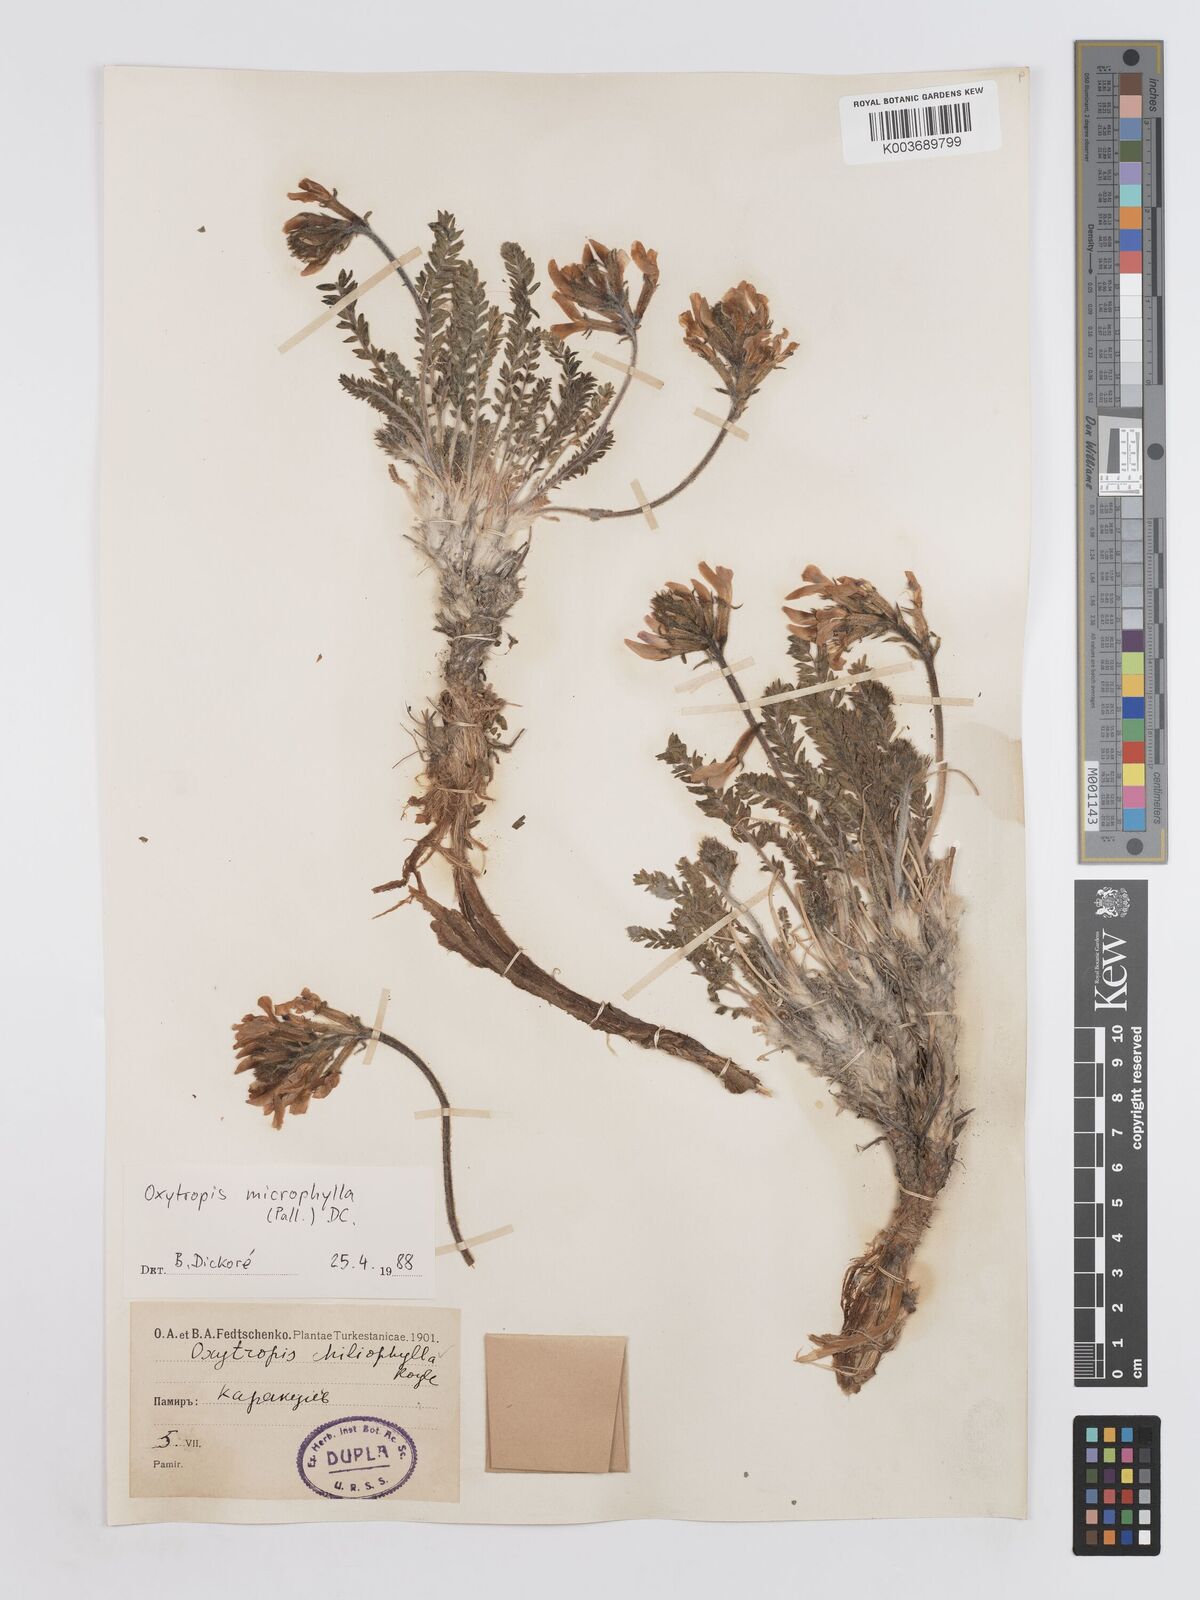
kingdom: Plantae
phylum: Tracheophyta
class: Magnoliopsida
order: Fabales
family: Fabaceae
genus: Oxytropis
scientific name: Oxytropis
